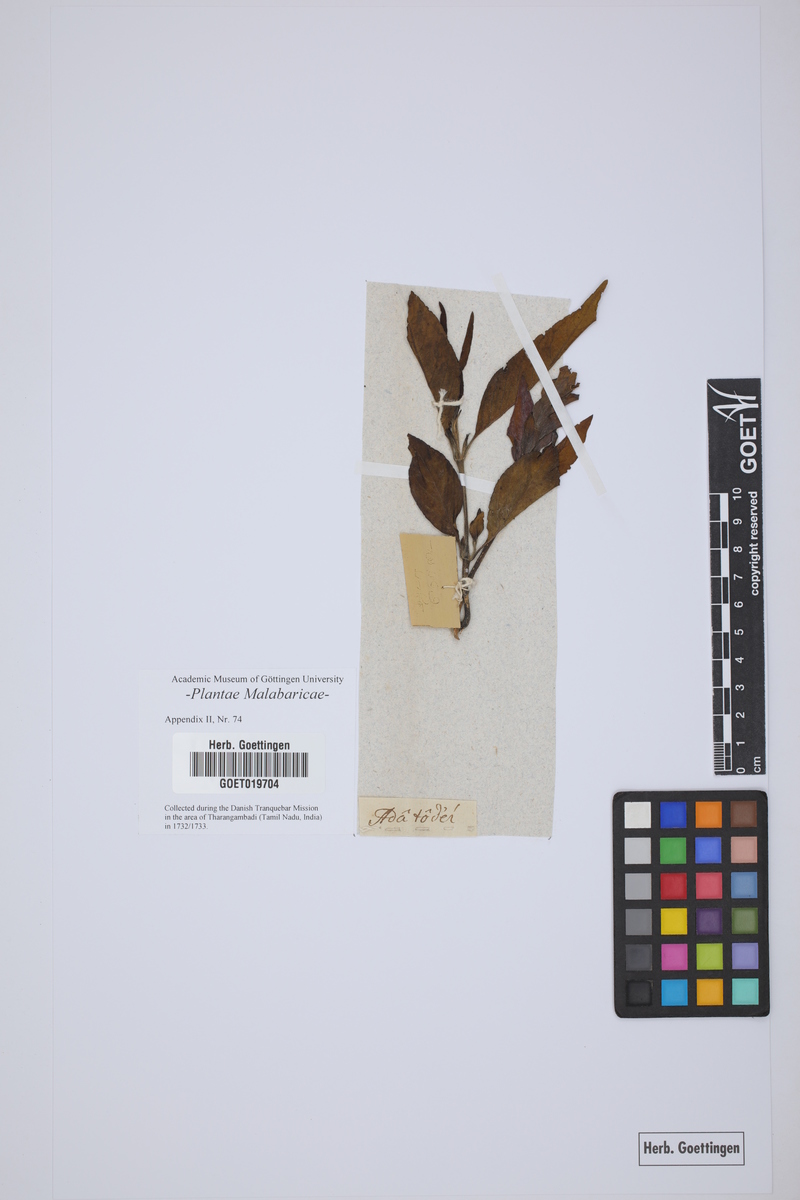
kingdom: Plantae
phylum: Tracheophyta
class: Magnoliopsida
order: Lamiales
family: Acanthaceae
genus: Justicia
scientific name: Justicia adhatoda
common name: Malabar nut
